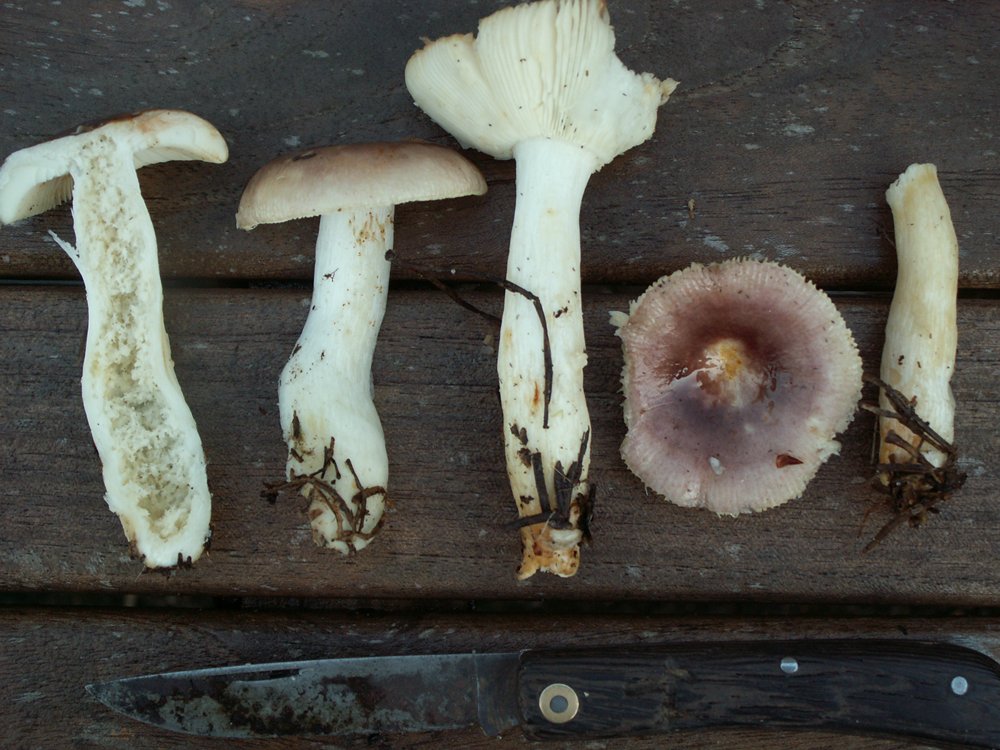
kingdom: Fungi
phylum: Basidiomycota
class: Agaricomycetes
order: Russulales
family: Russulaceae
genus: Russula
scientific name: Russula versicolor
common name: foranderlig skørhat
